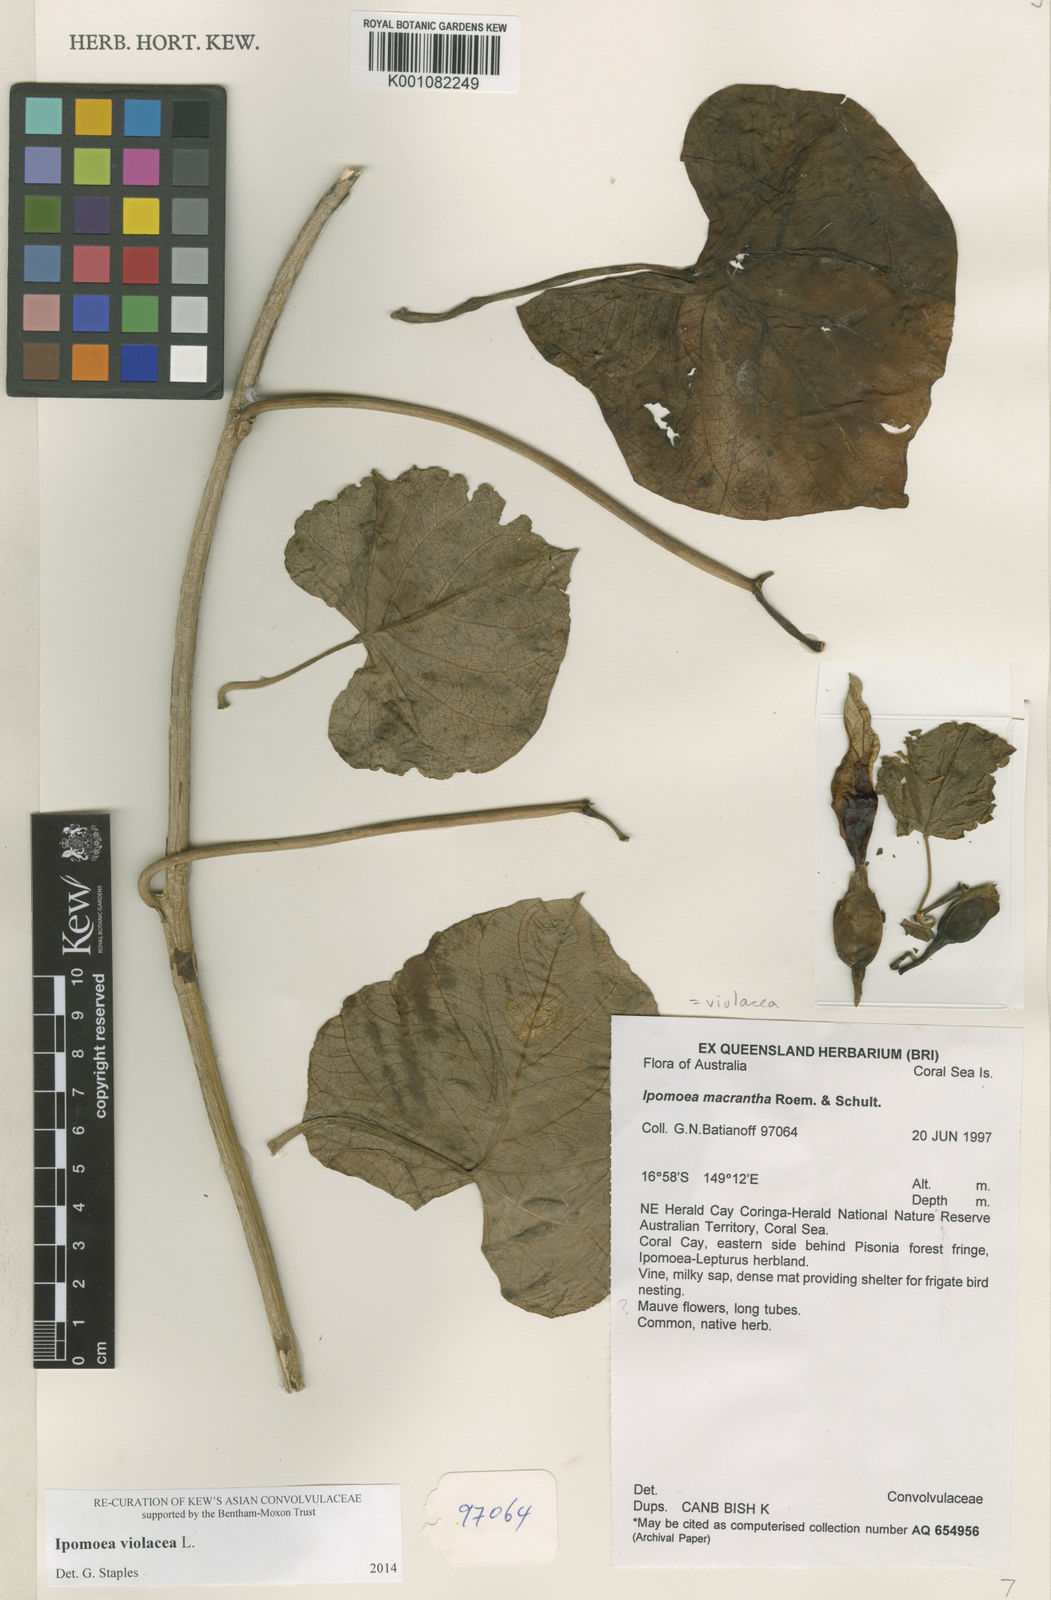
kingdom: Plantae
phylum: Tracheophyta
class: Magnoliopsida
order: Solanales
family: Convolvulaceae
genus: Ipomoea
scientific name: Ipomoea violacea
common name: Beach moonflower
